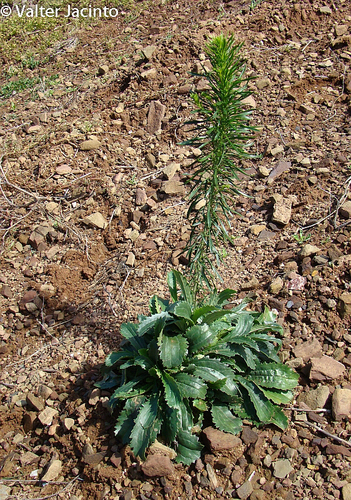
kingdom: Plantae
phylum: Tracheophyta
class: Magnoliopsida
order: Lamiales
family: Plantaginaceae
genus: Anarrhinum
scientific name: Anarrhinum bellidifolium
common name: Daisy-leaved toadflax
